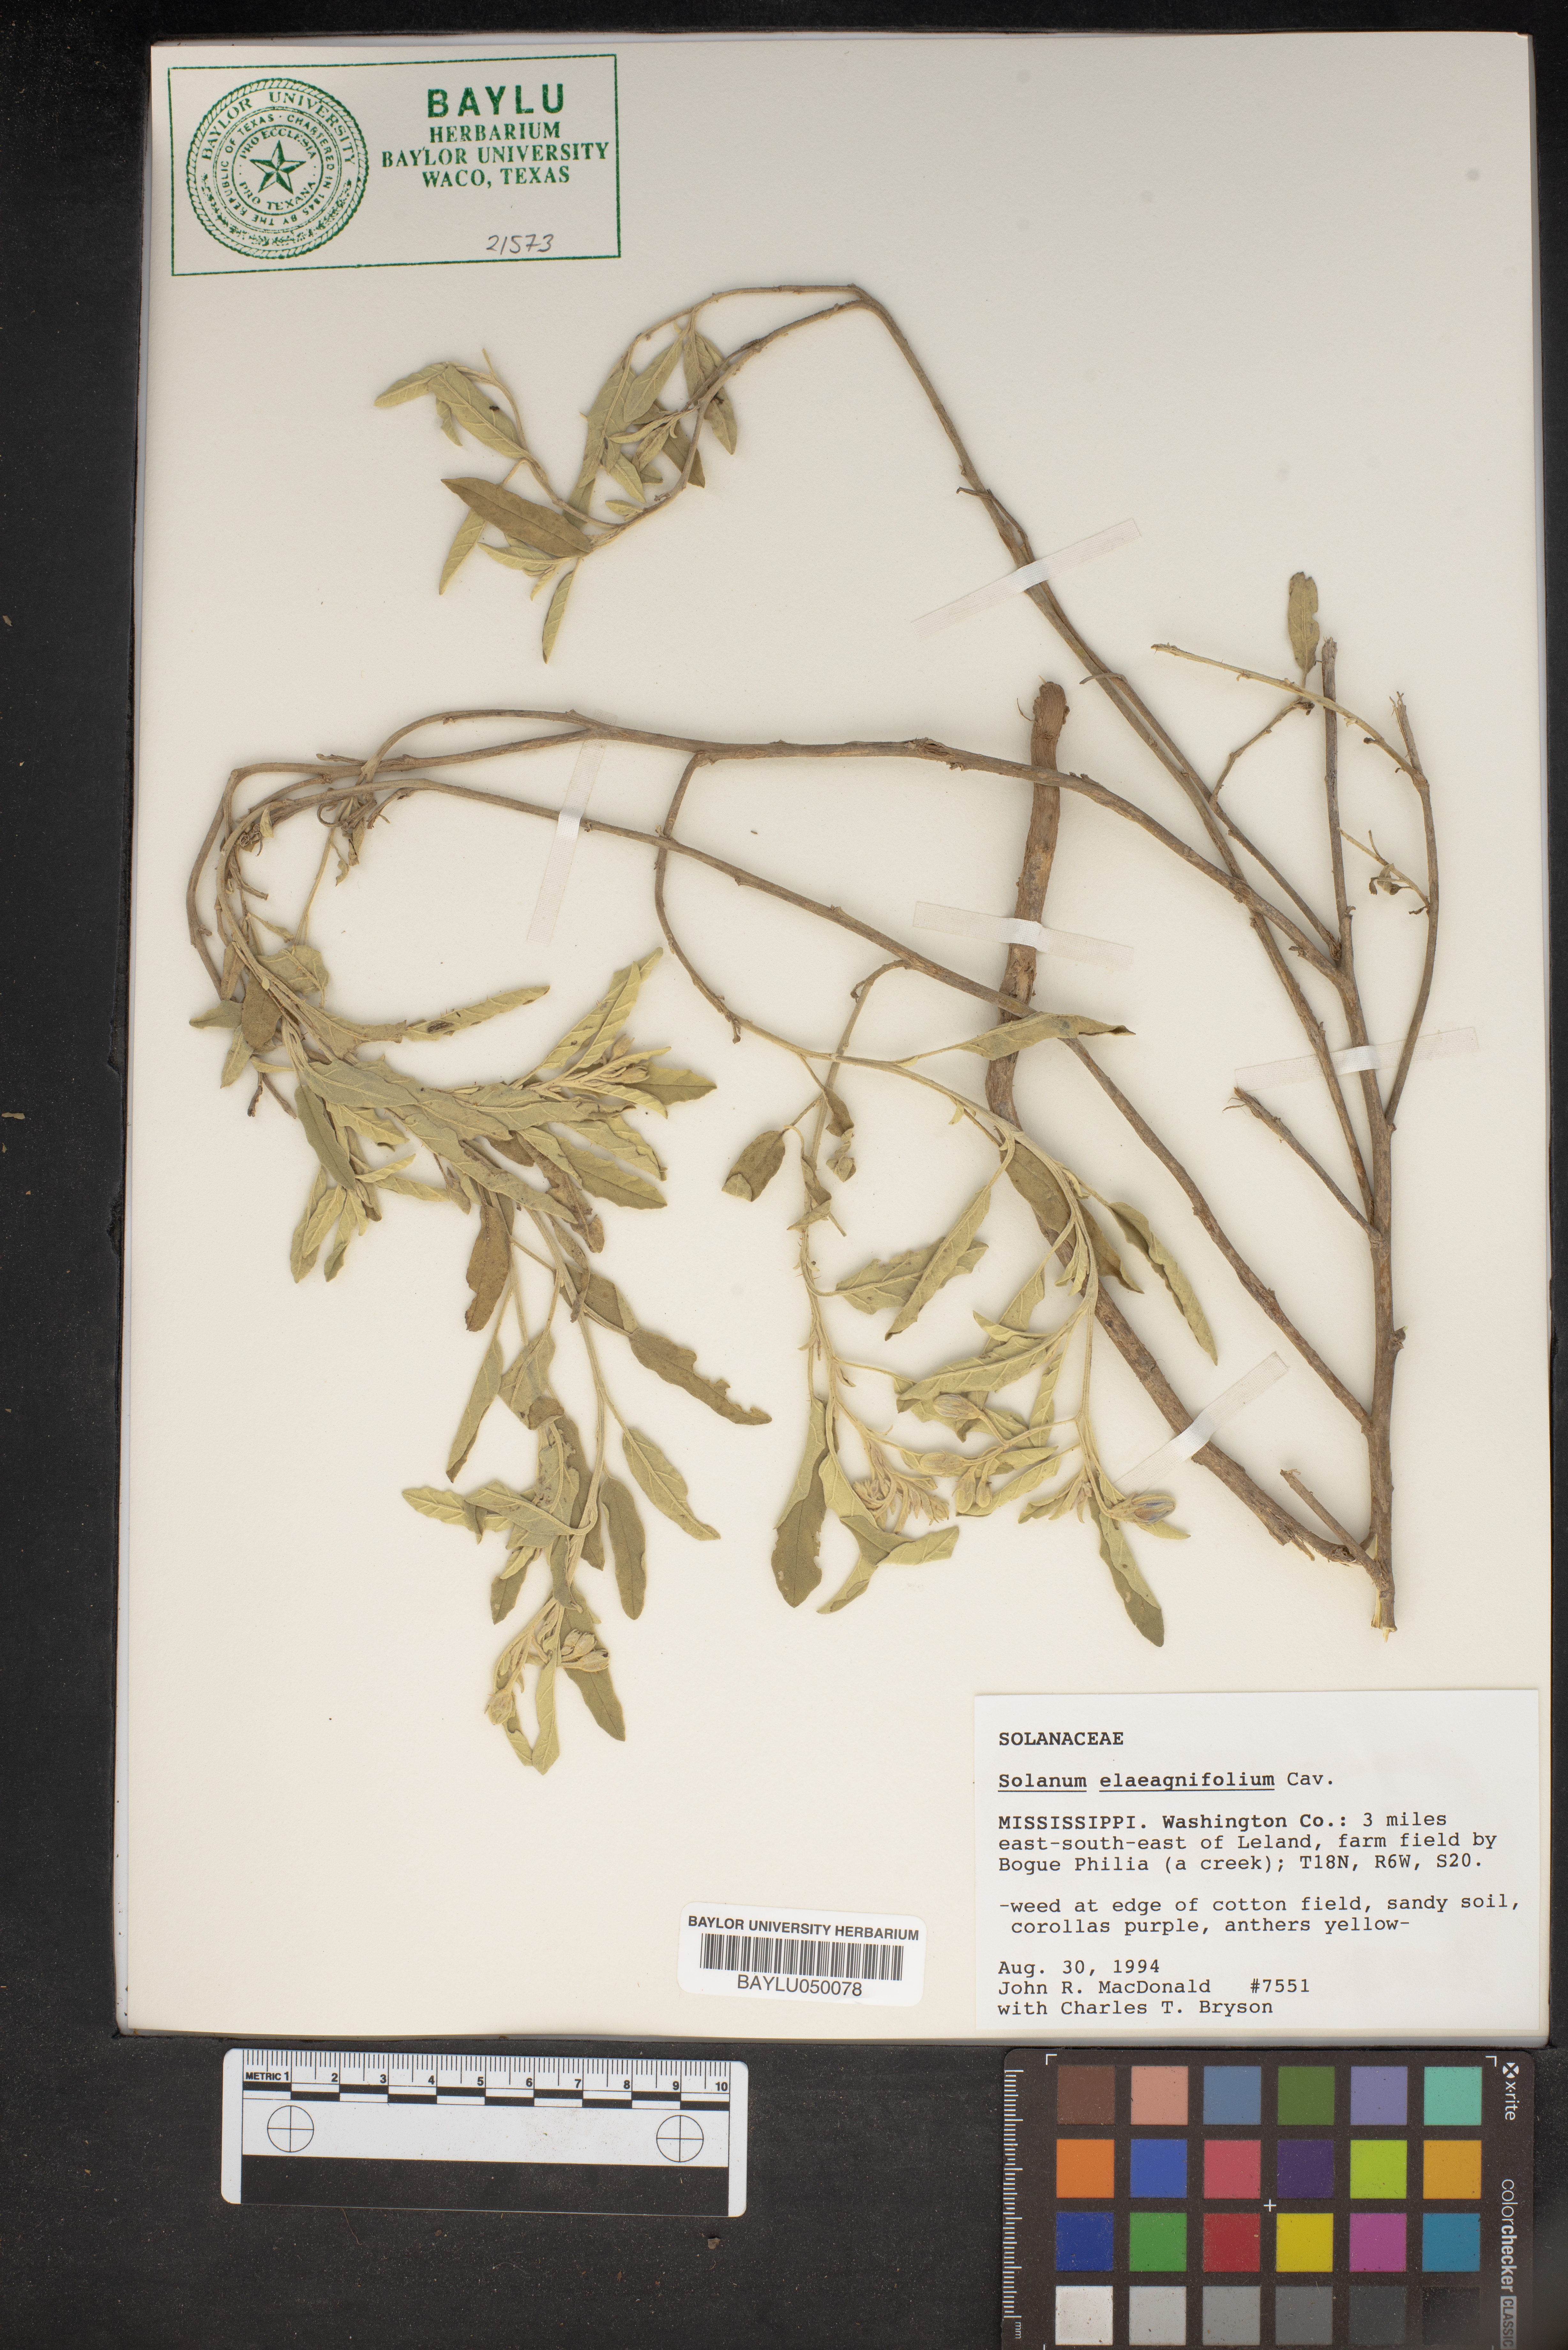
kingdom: Plantae
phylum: Tracheophyta
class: Magnoliopsida
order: Solanales
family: Solanaceae
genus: Solanum
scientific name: Solanum elaeagnifolium
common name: Silverleaf nightshade
